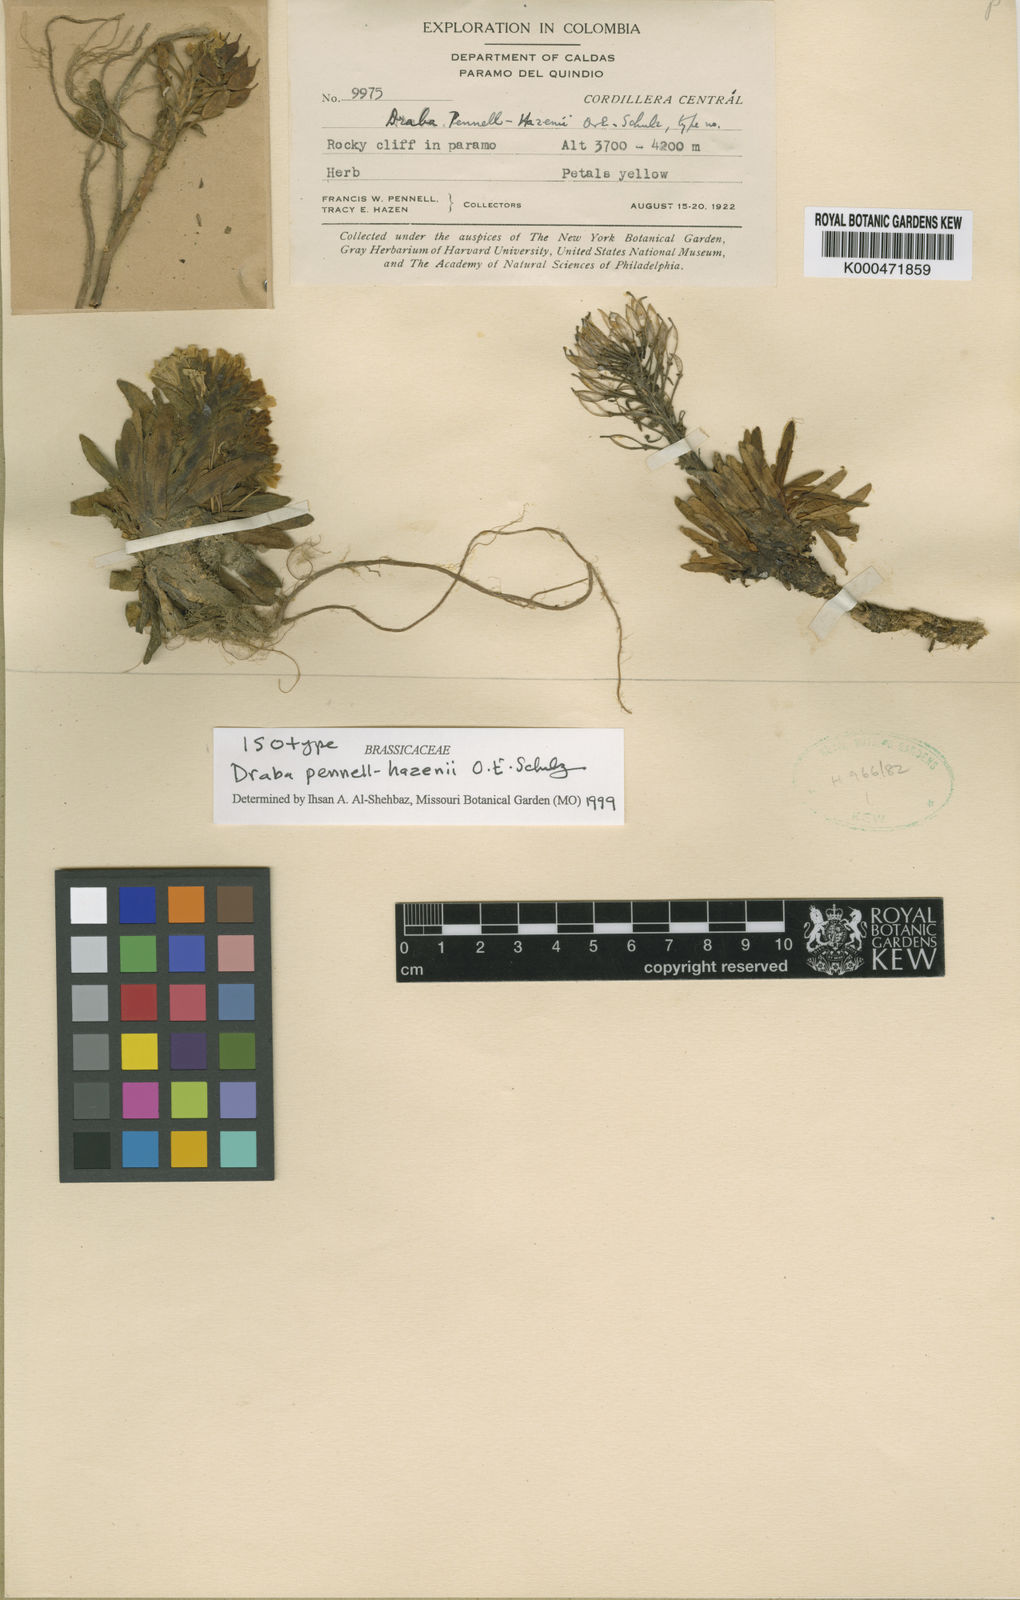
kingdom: Plantae
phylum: Tracheophyta
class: Magnoliopsida
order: Brassicales
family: Brassicaceae
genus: Draba
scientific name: Draba pennell-hazenii
